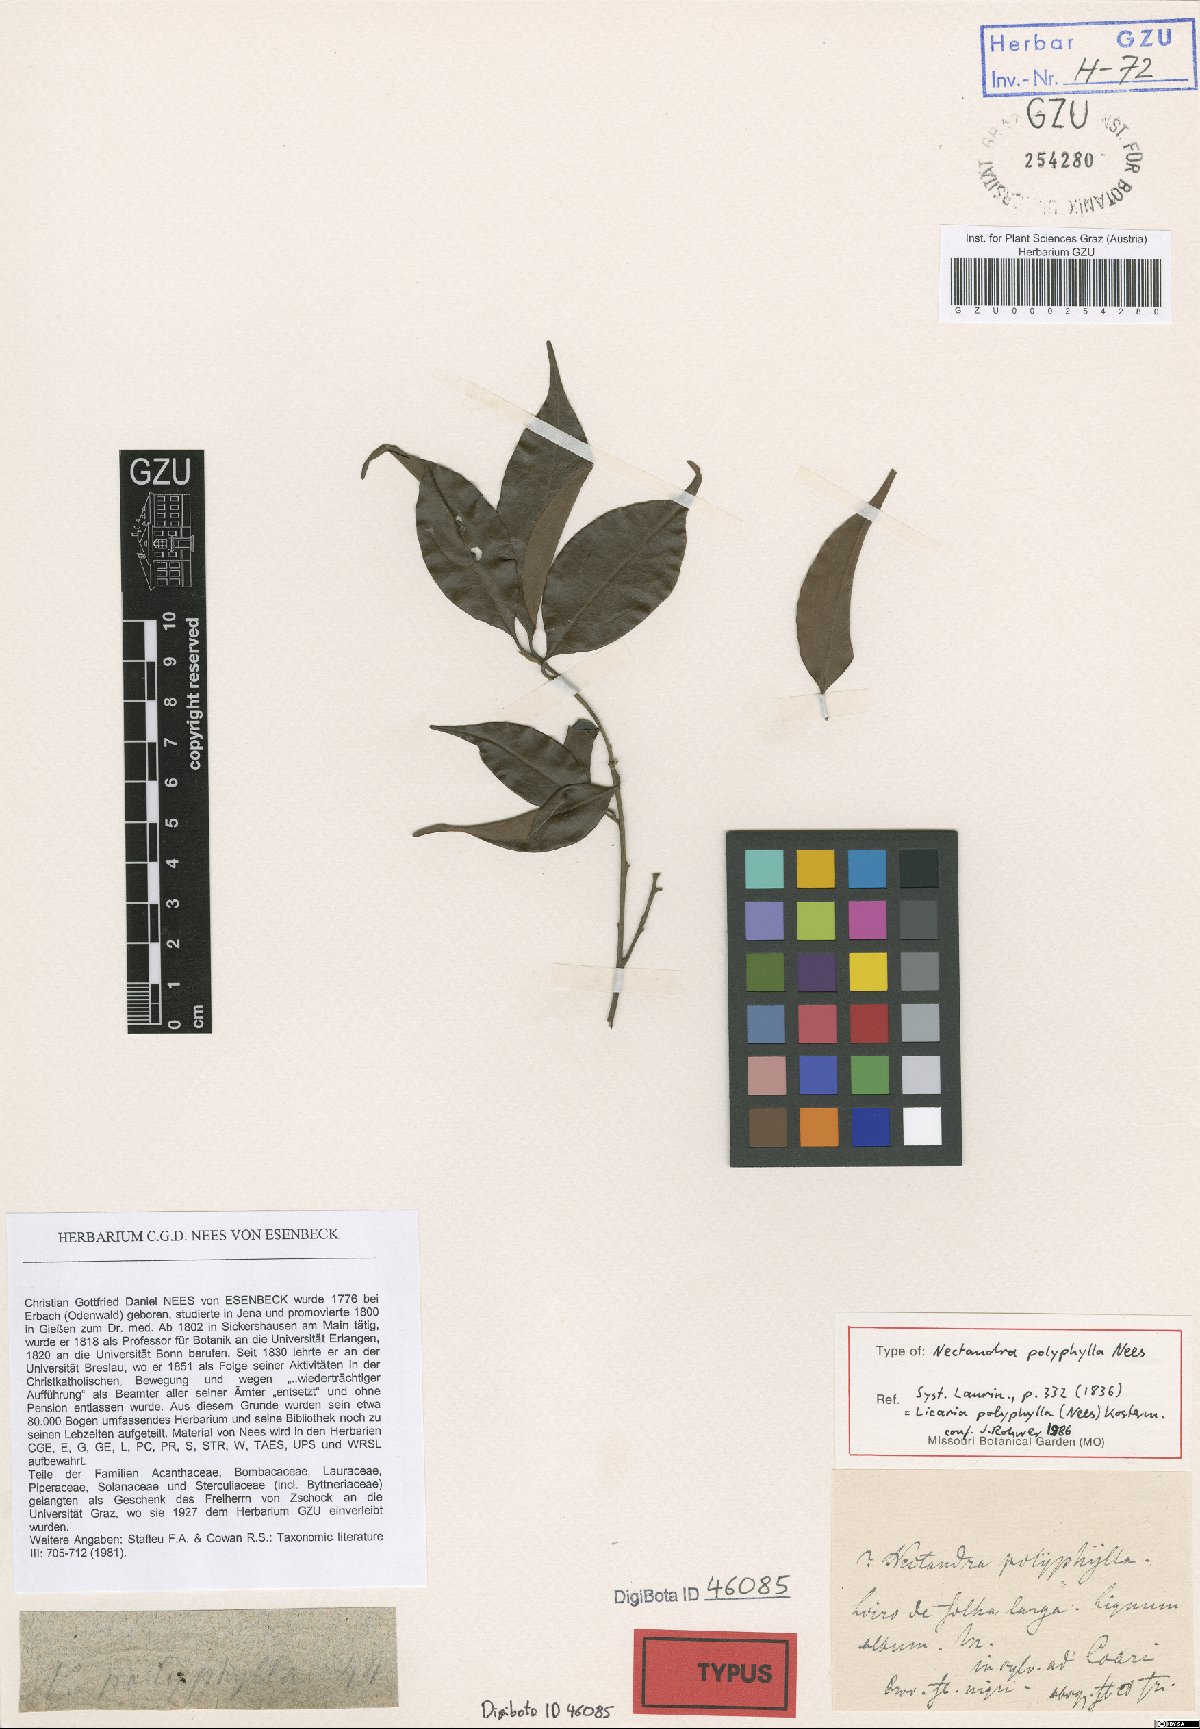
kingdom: Plantae
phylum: Tracheophyta
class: Magnoliopsida
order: Laurales
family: Lauraceae
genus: Licaria
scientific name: Licaria polyphylla
